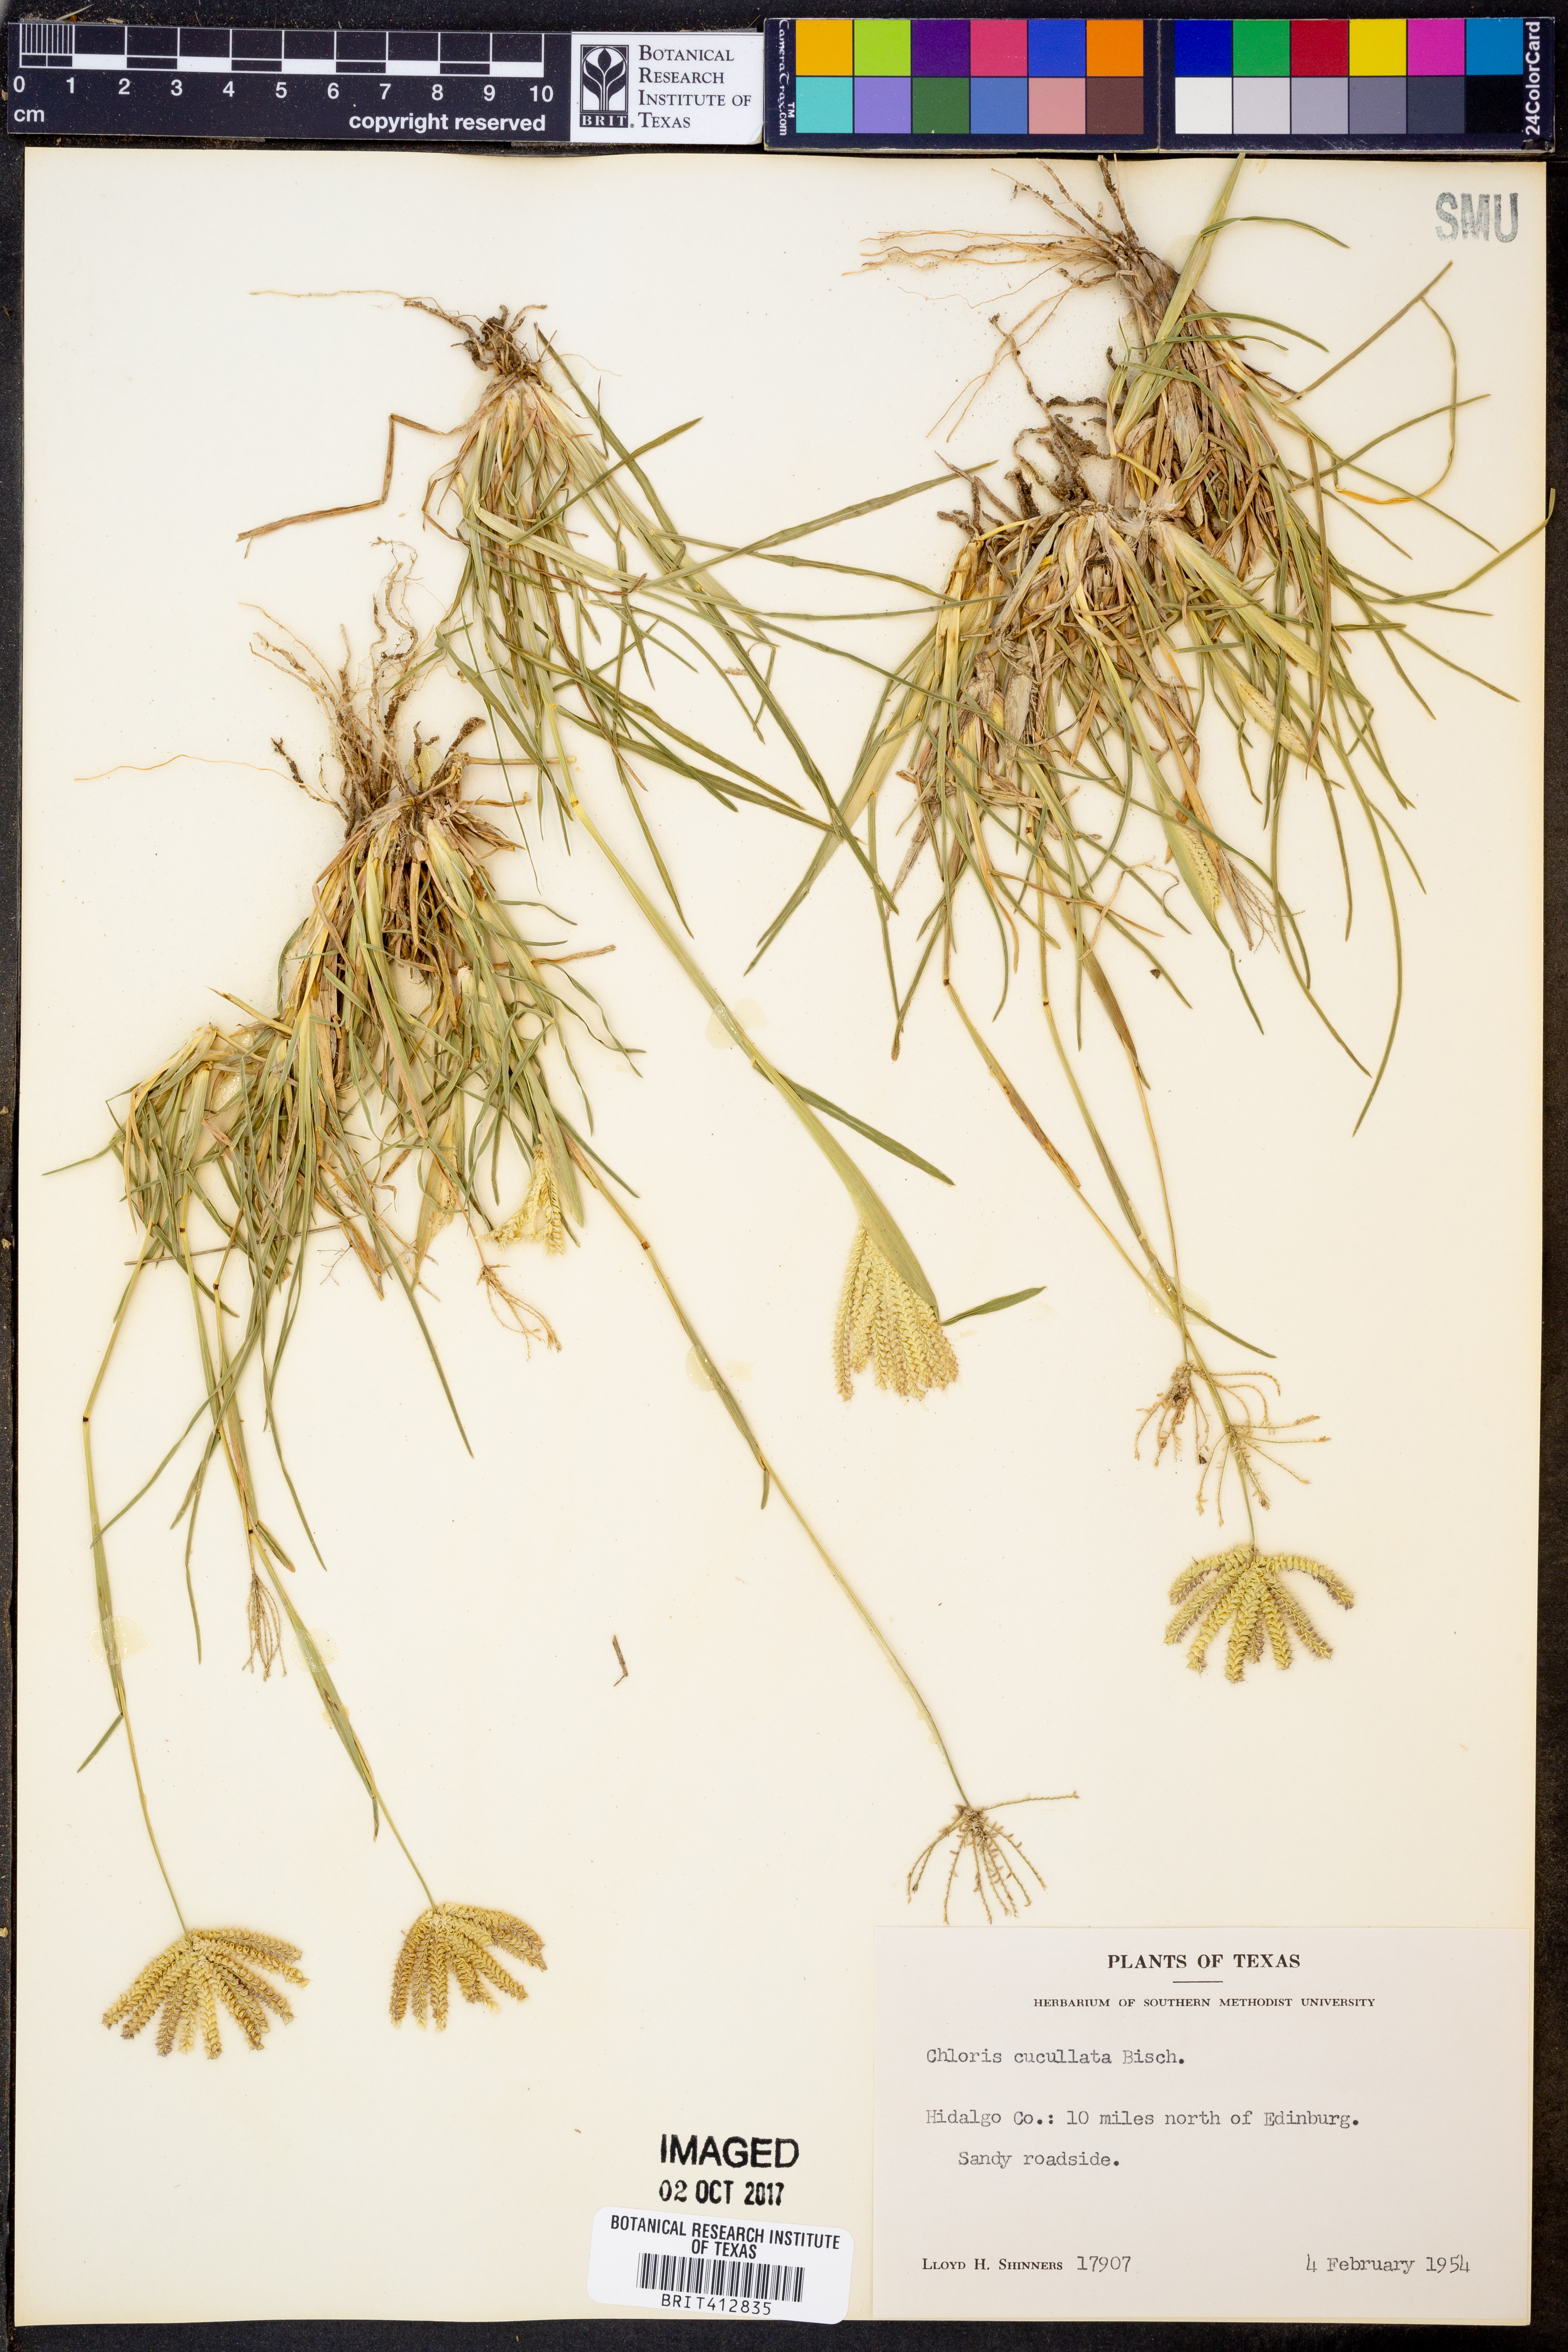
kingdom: Plantae
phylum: Tracheophyta
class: Liliopsida
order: Poales
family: Poaceae
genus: Chloris
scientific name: Chloris cucullata
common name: Hooded windmill grass
